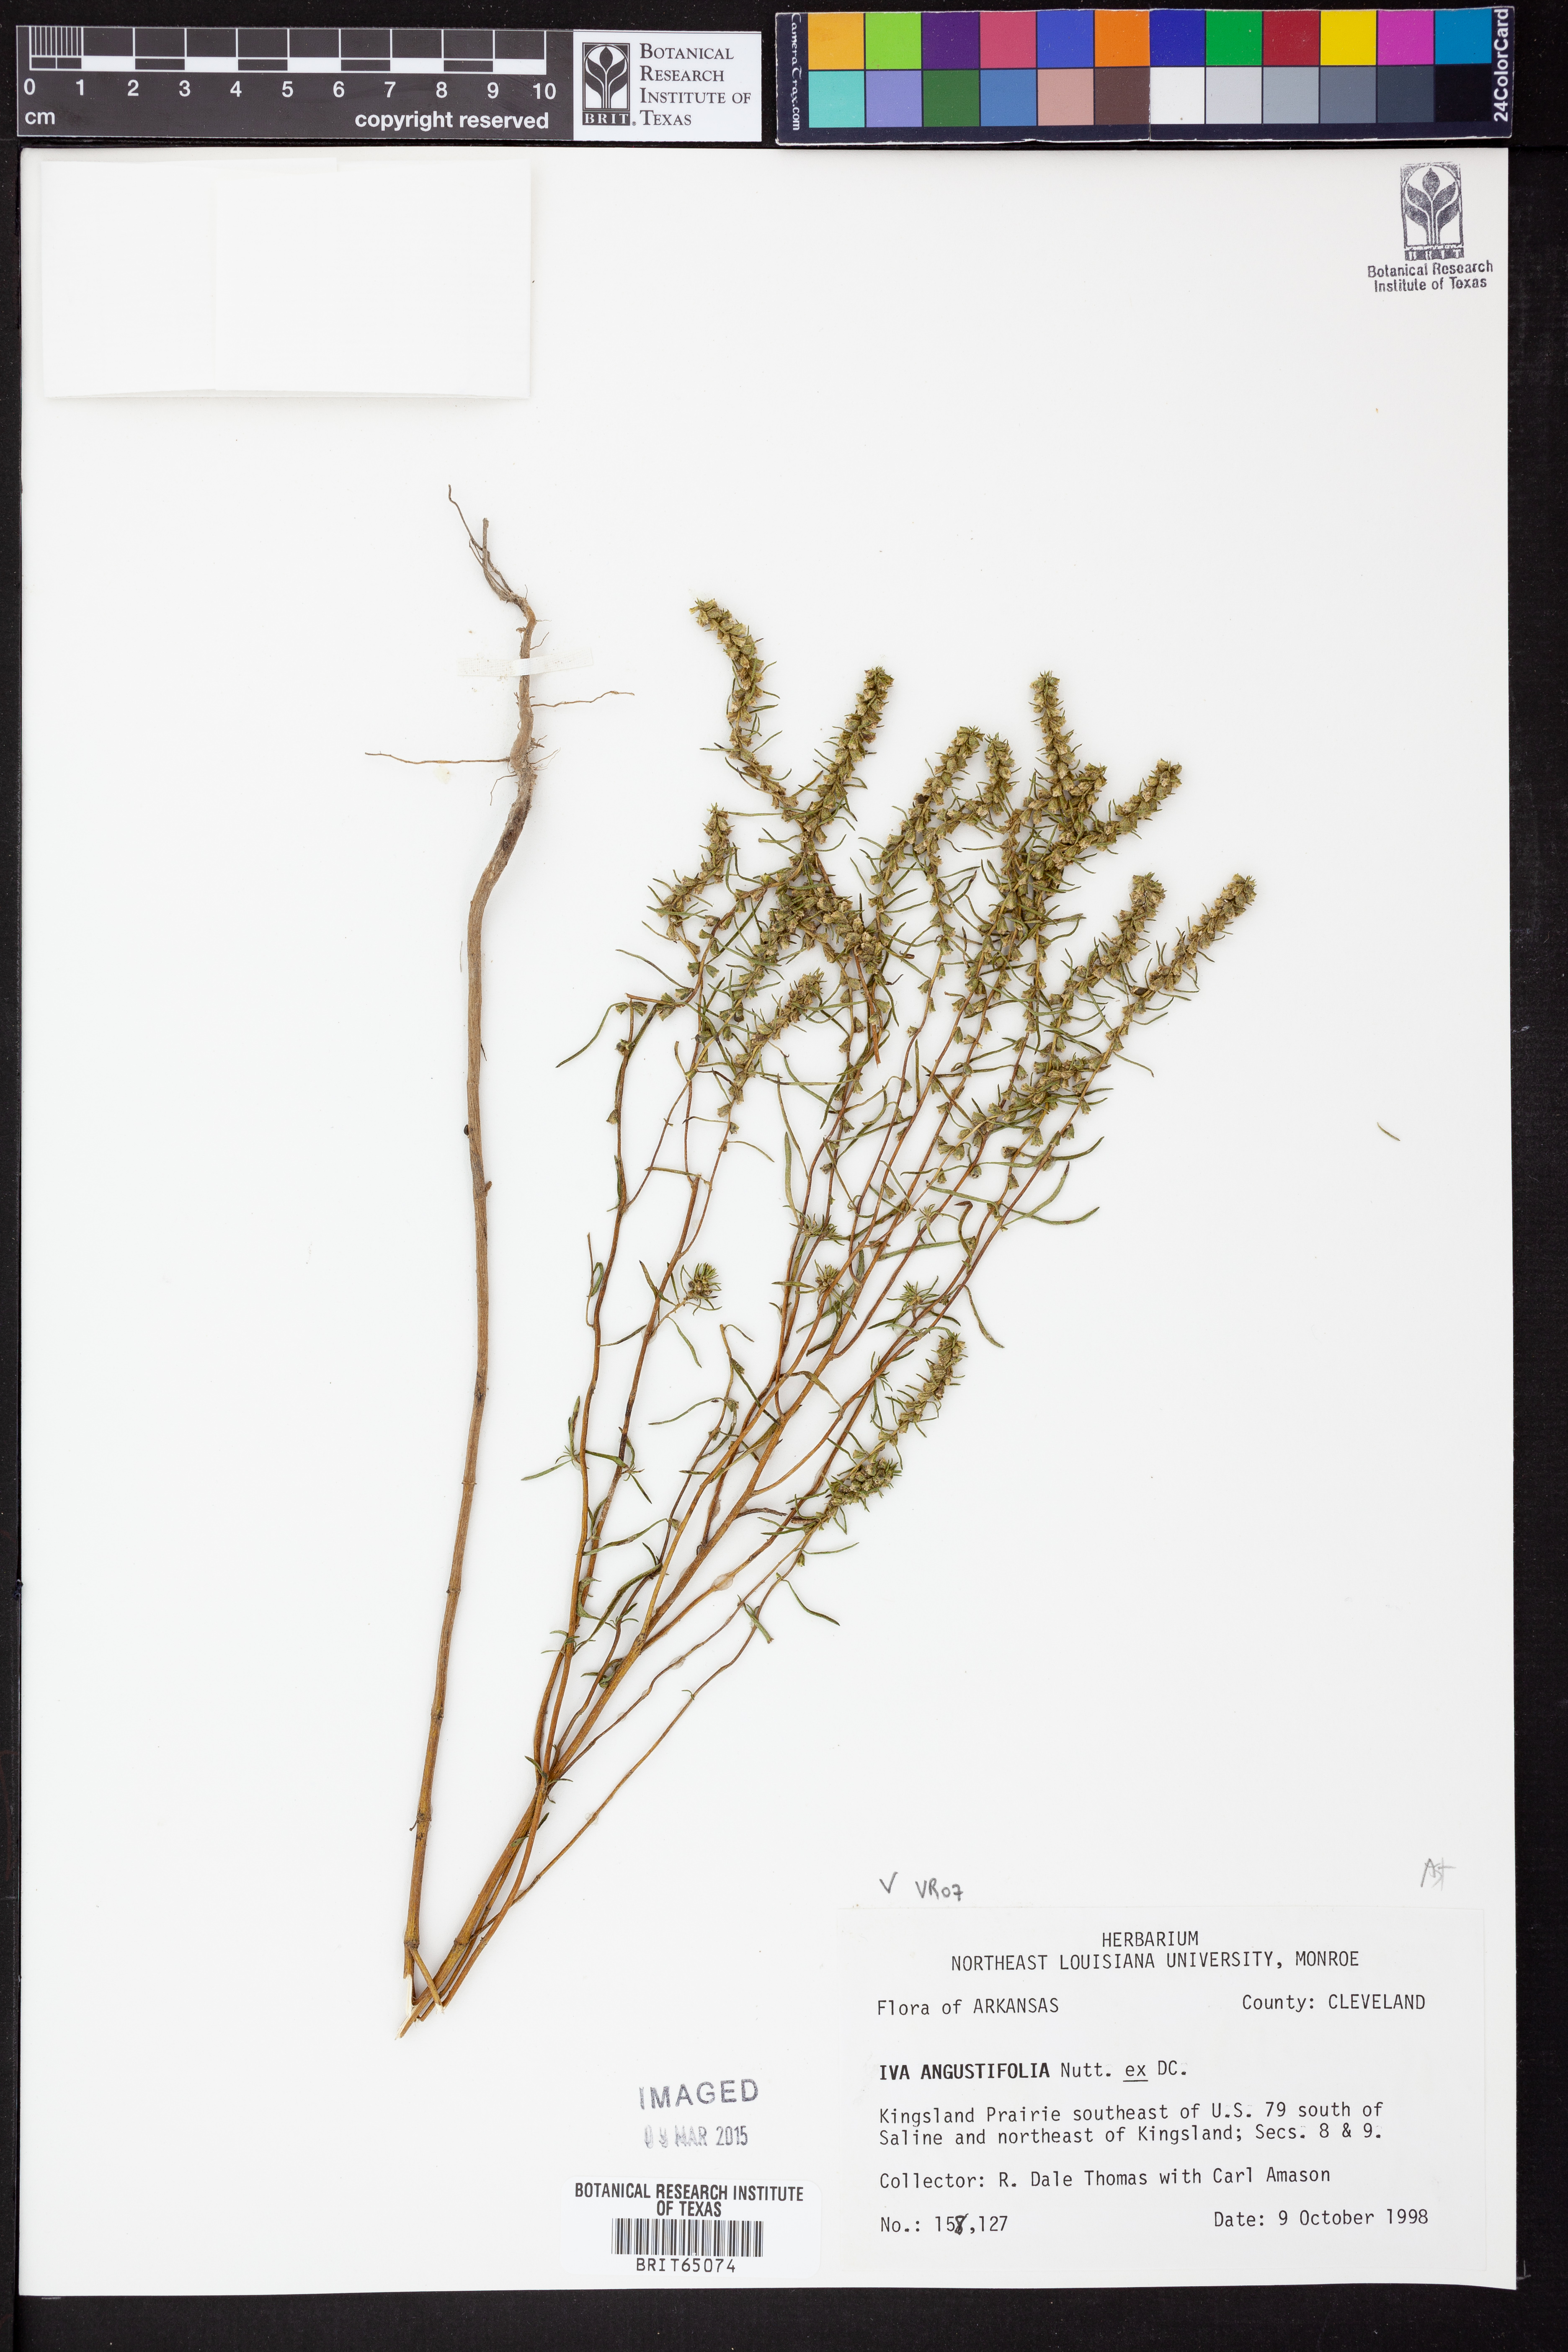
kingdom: Plantae
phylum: Tracheophyta
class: Magnoliopsida
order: Asterales
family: Asteraceae
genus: Iva
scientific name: Iva asperifolia
